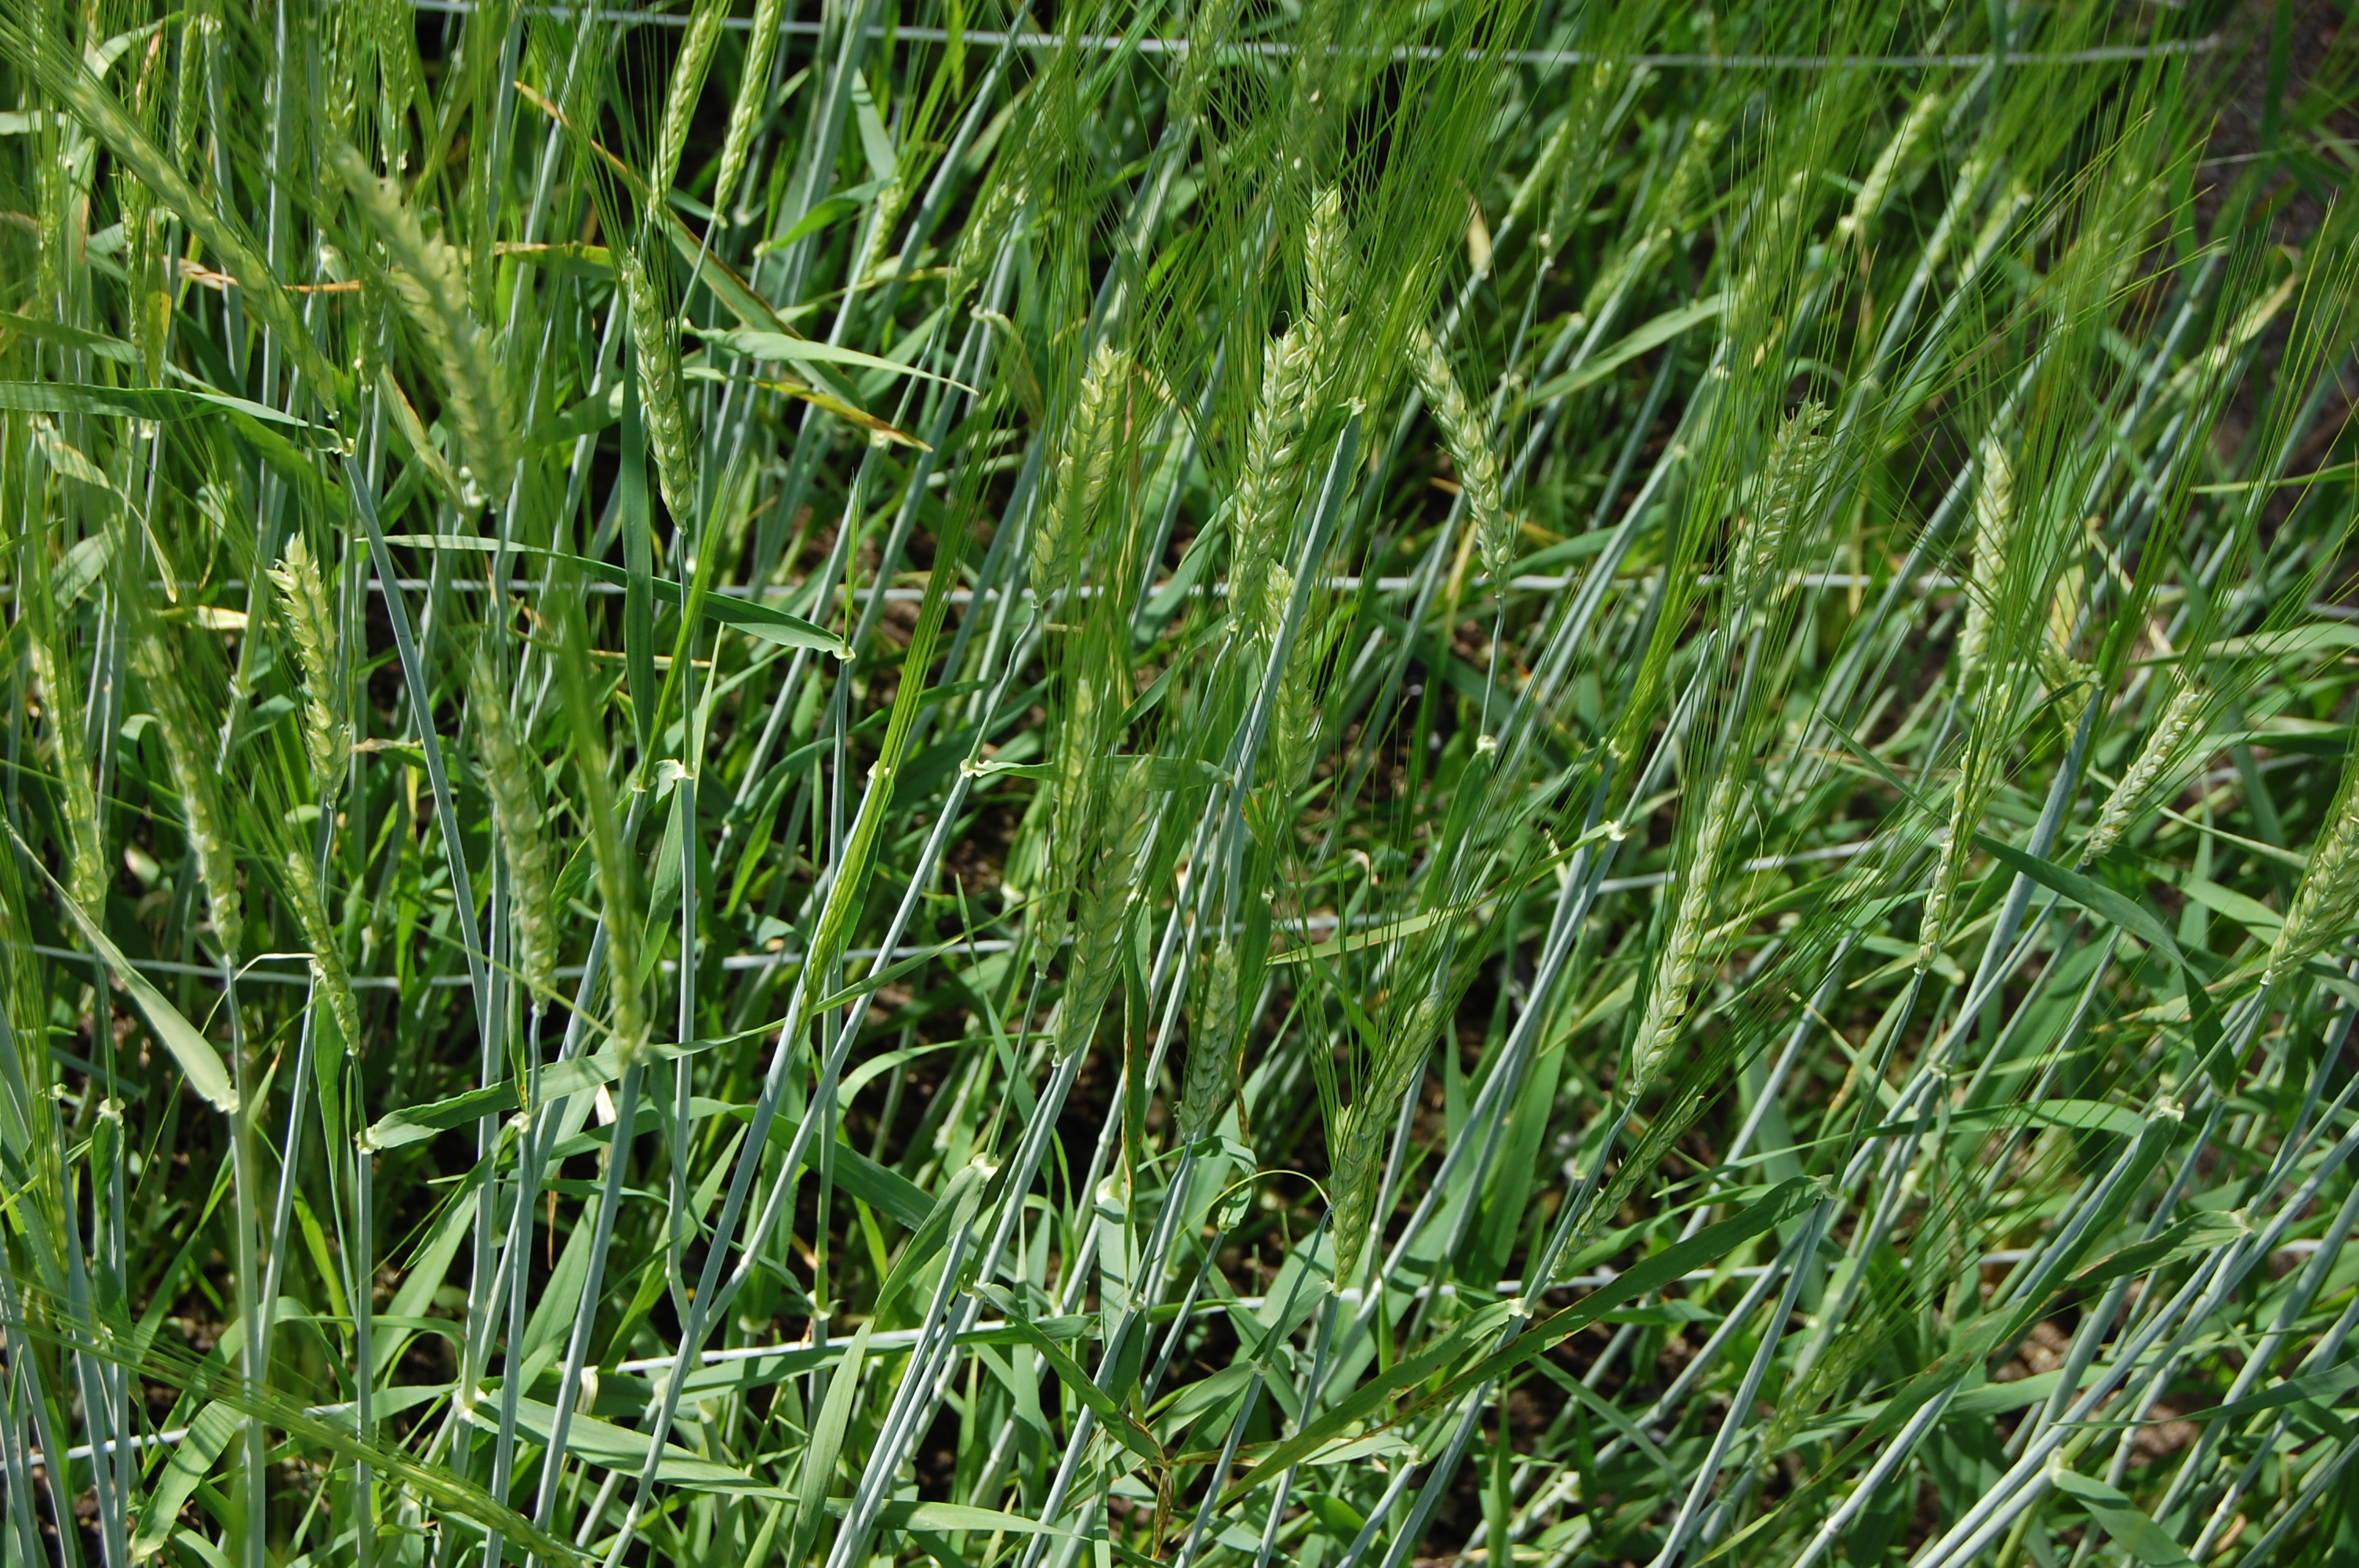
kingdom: Plantae
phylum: Tracheophyta
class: Liliopsida
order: Poales
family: Poaceae
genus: Hordeum
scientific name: Hordeum vulgare
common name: Common barley
